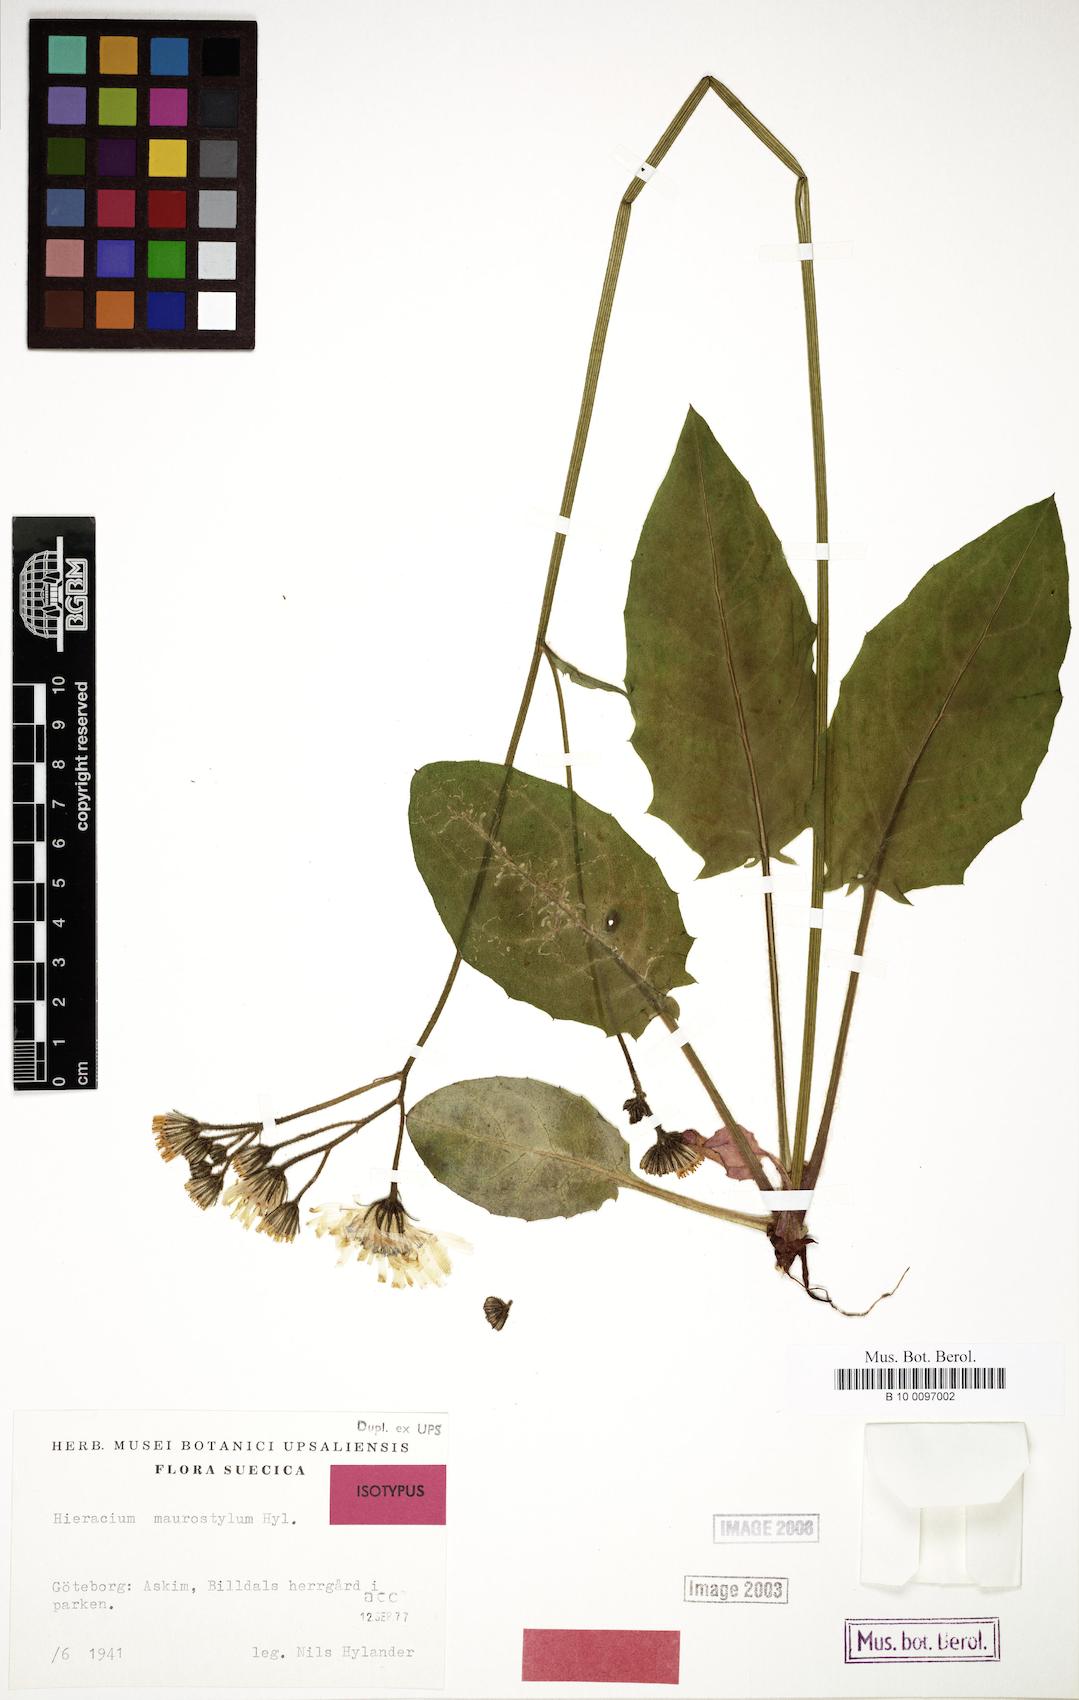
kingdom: Plantae
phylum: Tracheophyta
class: Magnoliopsida
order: Asterales
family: Asteraceae
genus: Hieracium
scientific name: Hieracium maurostylum
